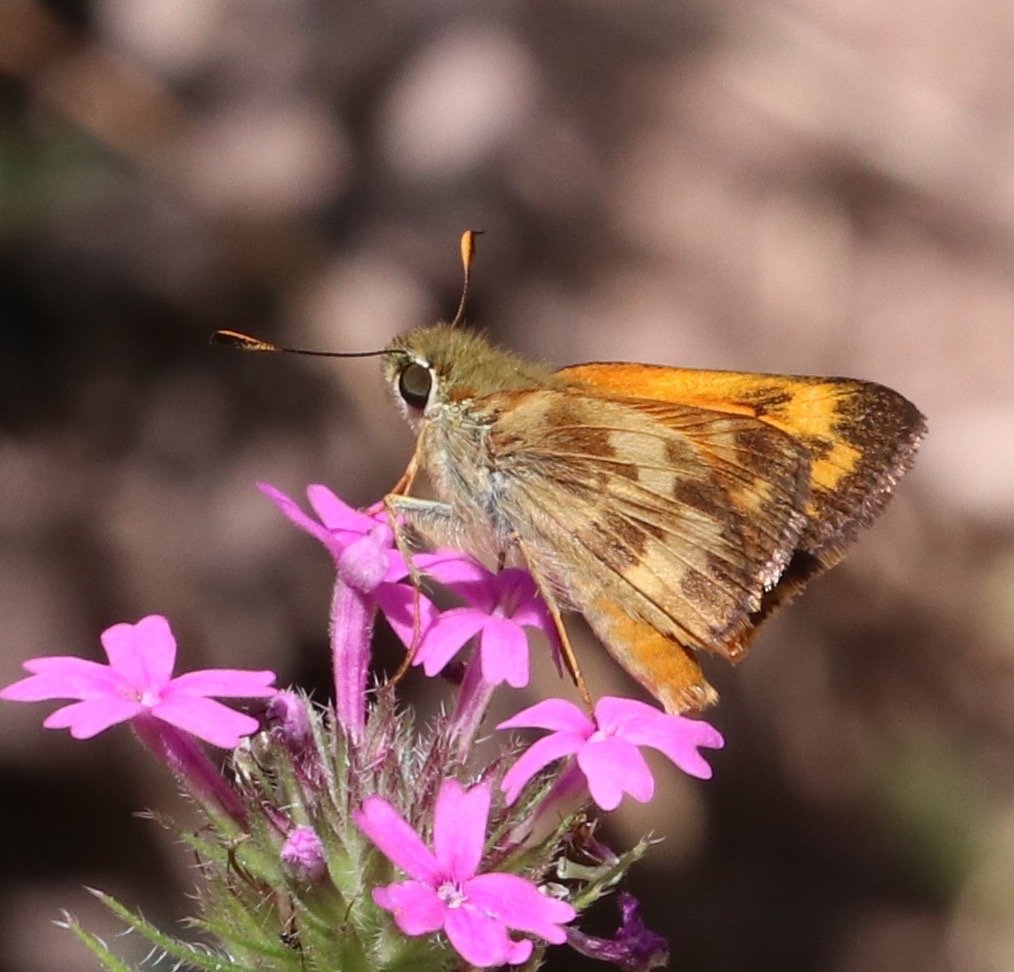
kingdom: Animalia
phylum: Arthropoda
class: Insecta
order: Lepidoptera
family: Hesperiidae
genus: Lon
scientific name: Lon taxiles
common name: Taxiles Skipper
